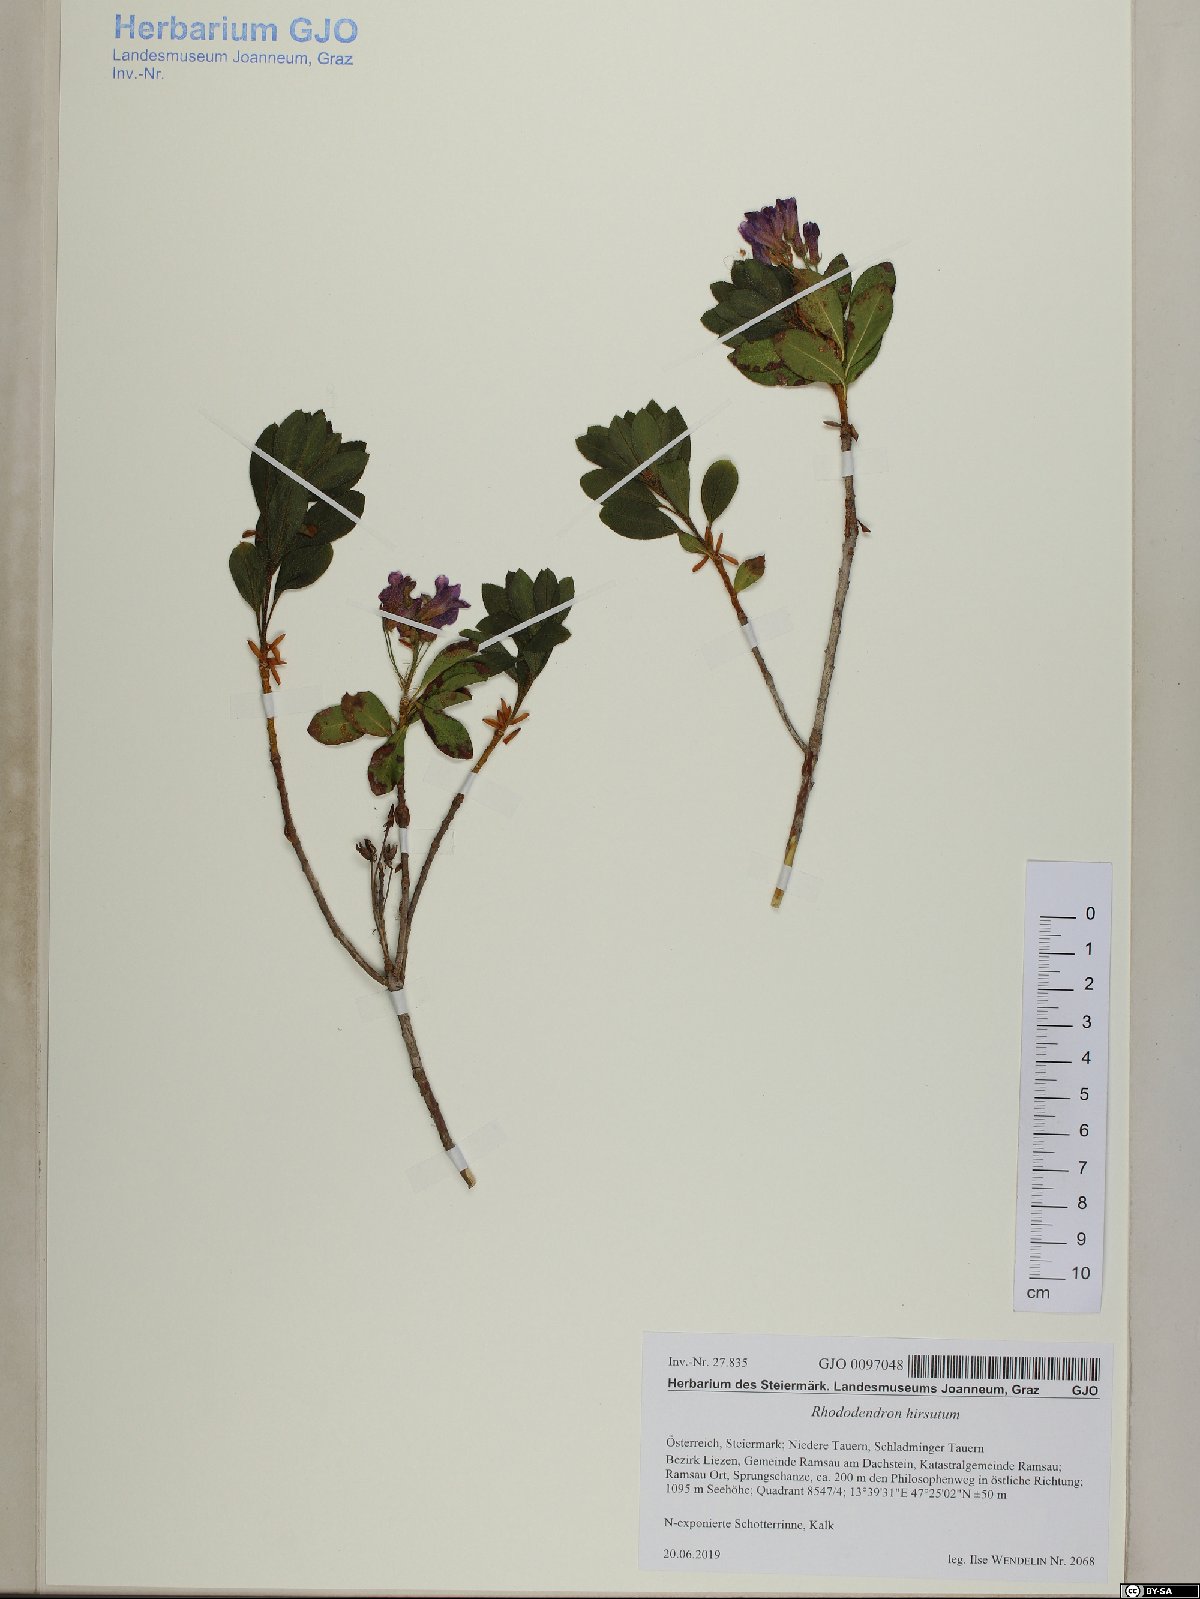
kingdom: Plantae
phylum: Tracheophyta
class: Magnoliopsida
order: Ericales
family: Ericaceae
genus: Rhododendron
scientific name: Rhododendron hirsutum
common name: Hairy alpenrose
